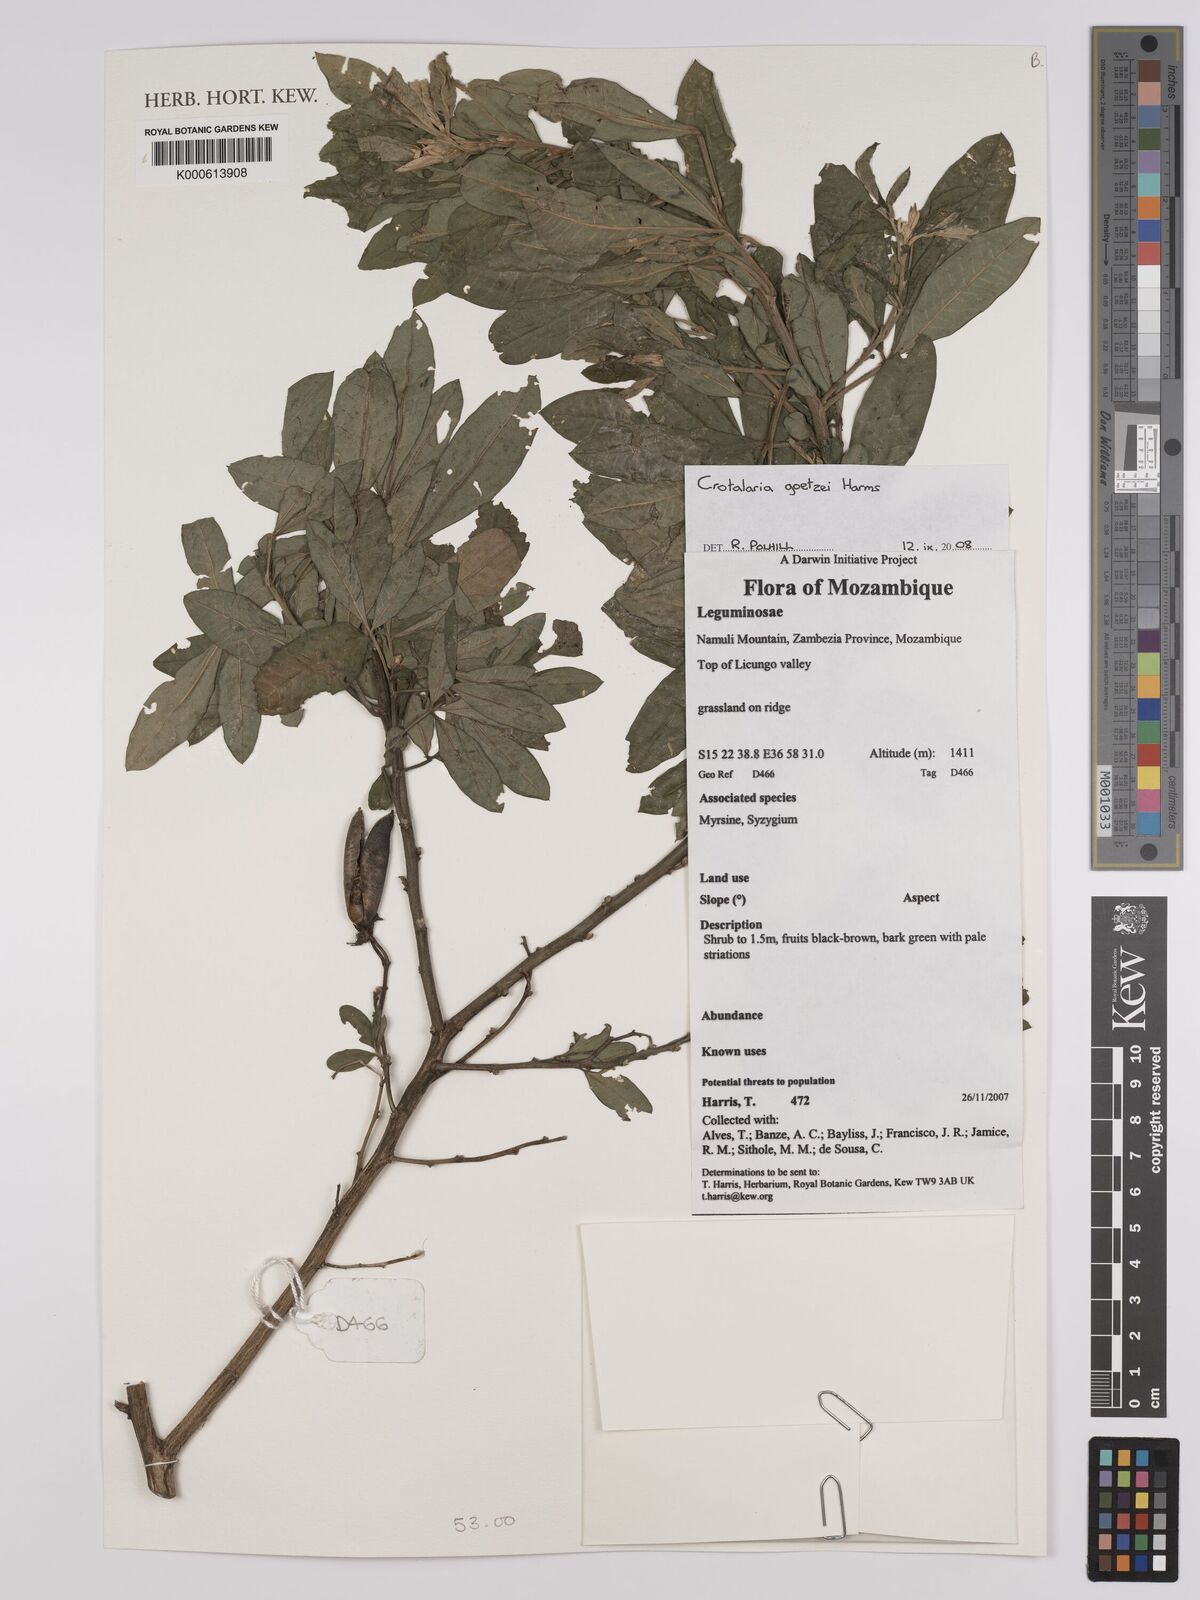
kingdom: Plantae
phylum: Tracheophyta
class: Magnoliopsida
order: Fabales
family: Fabaceae
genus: Crotalaria
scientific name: Crotalaria goetzei
